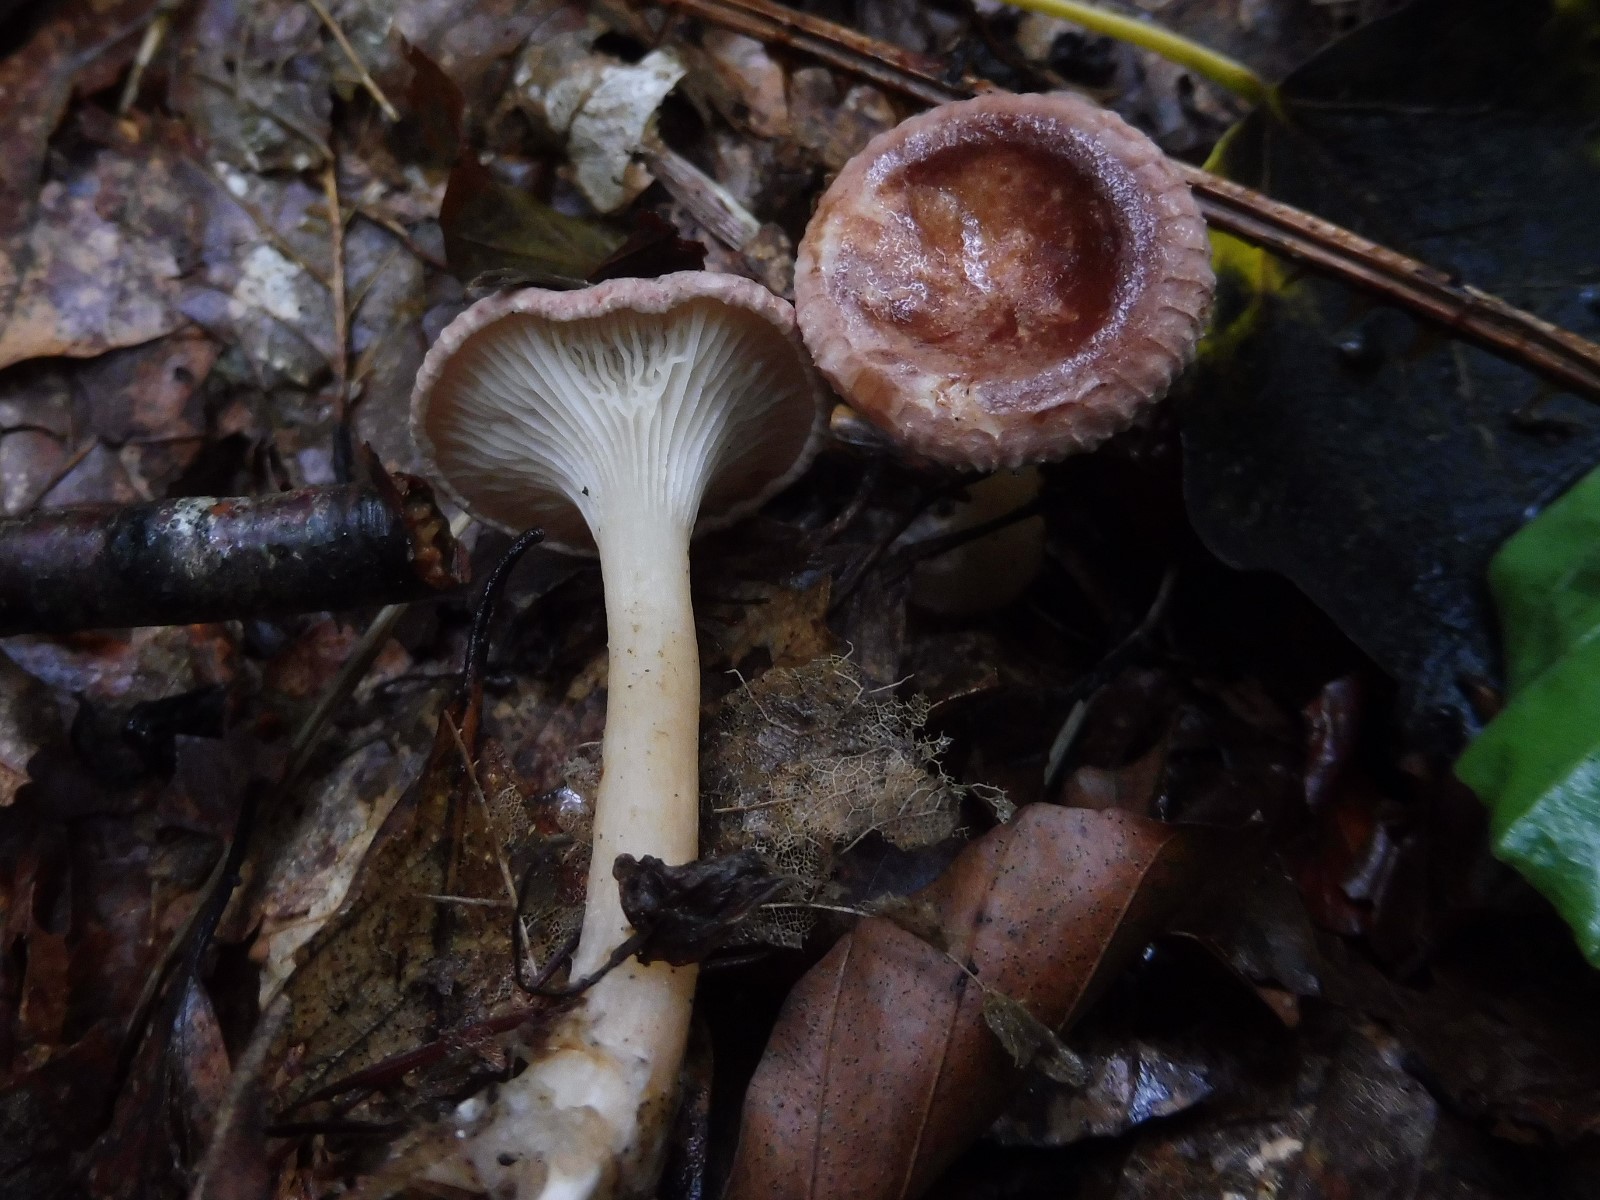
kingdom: Fungi
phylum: Basidiomycota
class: Agaricomycetes
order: Agaricales
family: Tricholomataceae
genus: Infundibulicybe
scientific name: Infundibulicybe gibba
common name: almindelig tragthat
